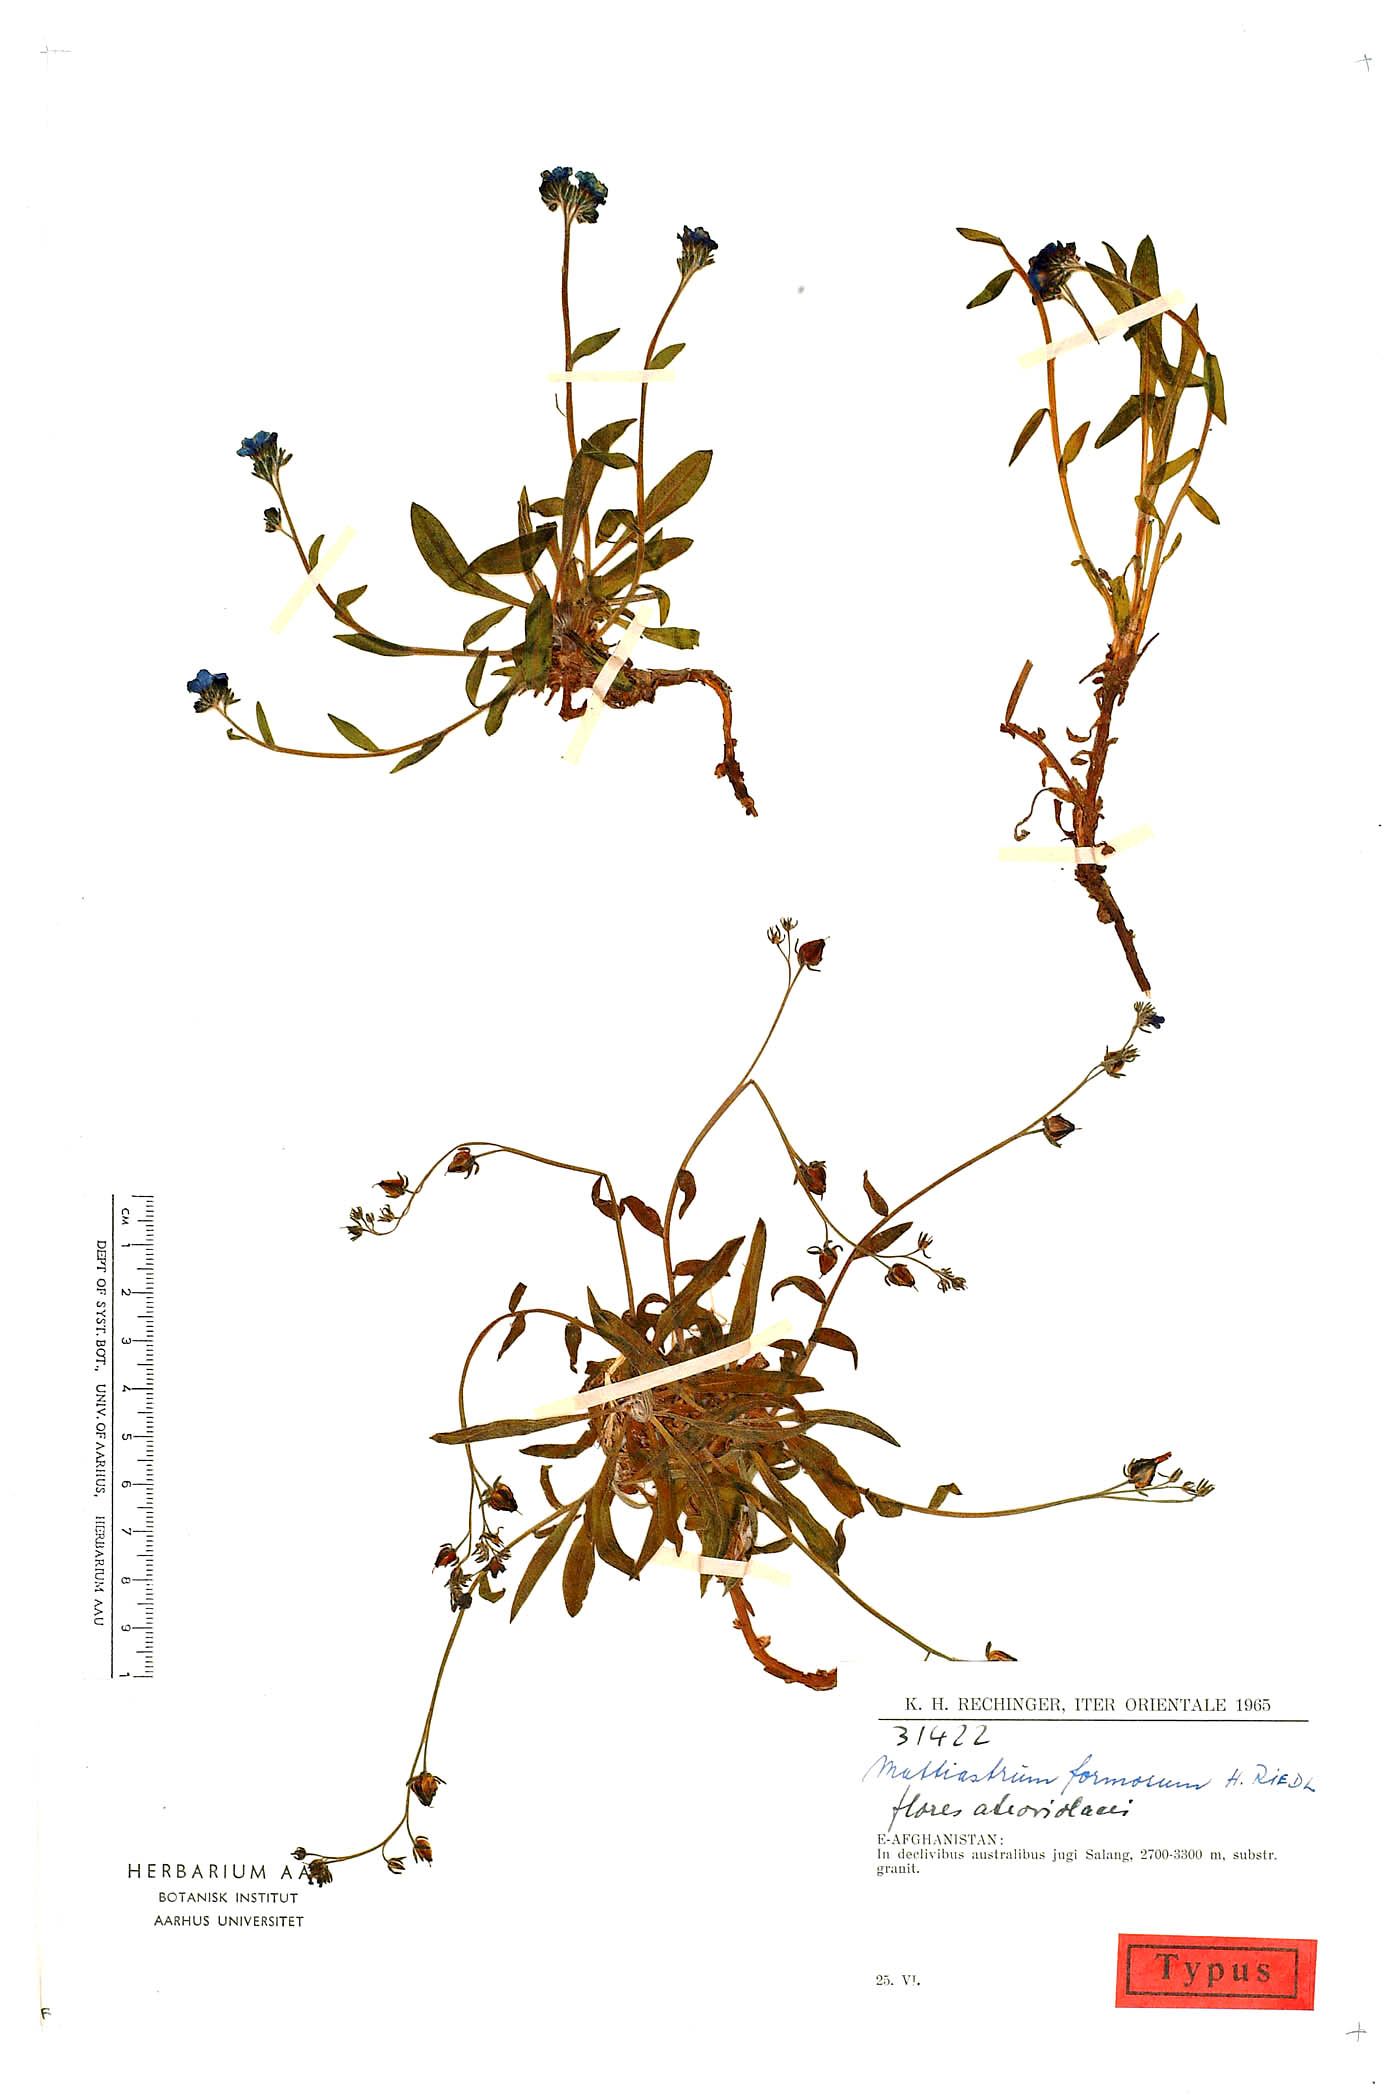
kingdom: Plantae
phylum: Tracheophyta
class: Magnoliopsida
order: Boraginales
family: Boraginaceae
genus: Paracaryum
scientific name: Paracaryum rechingeri
